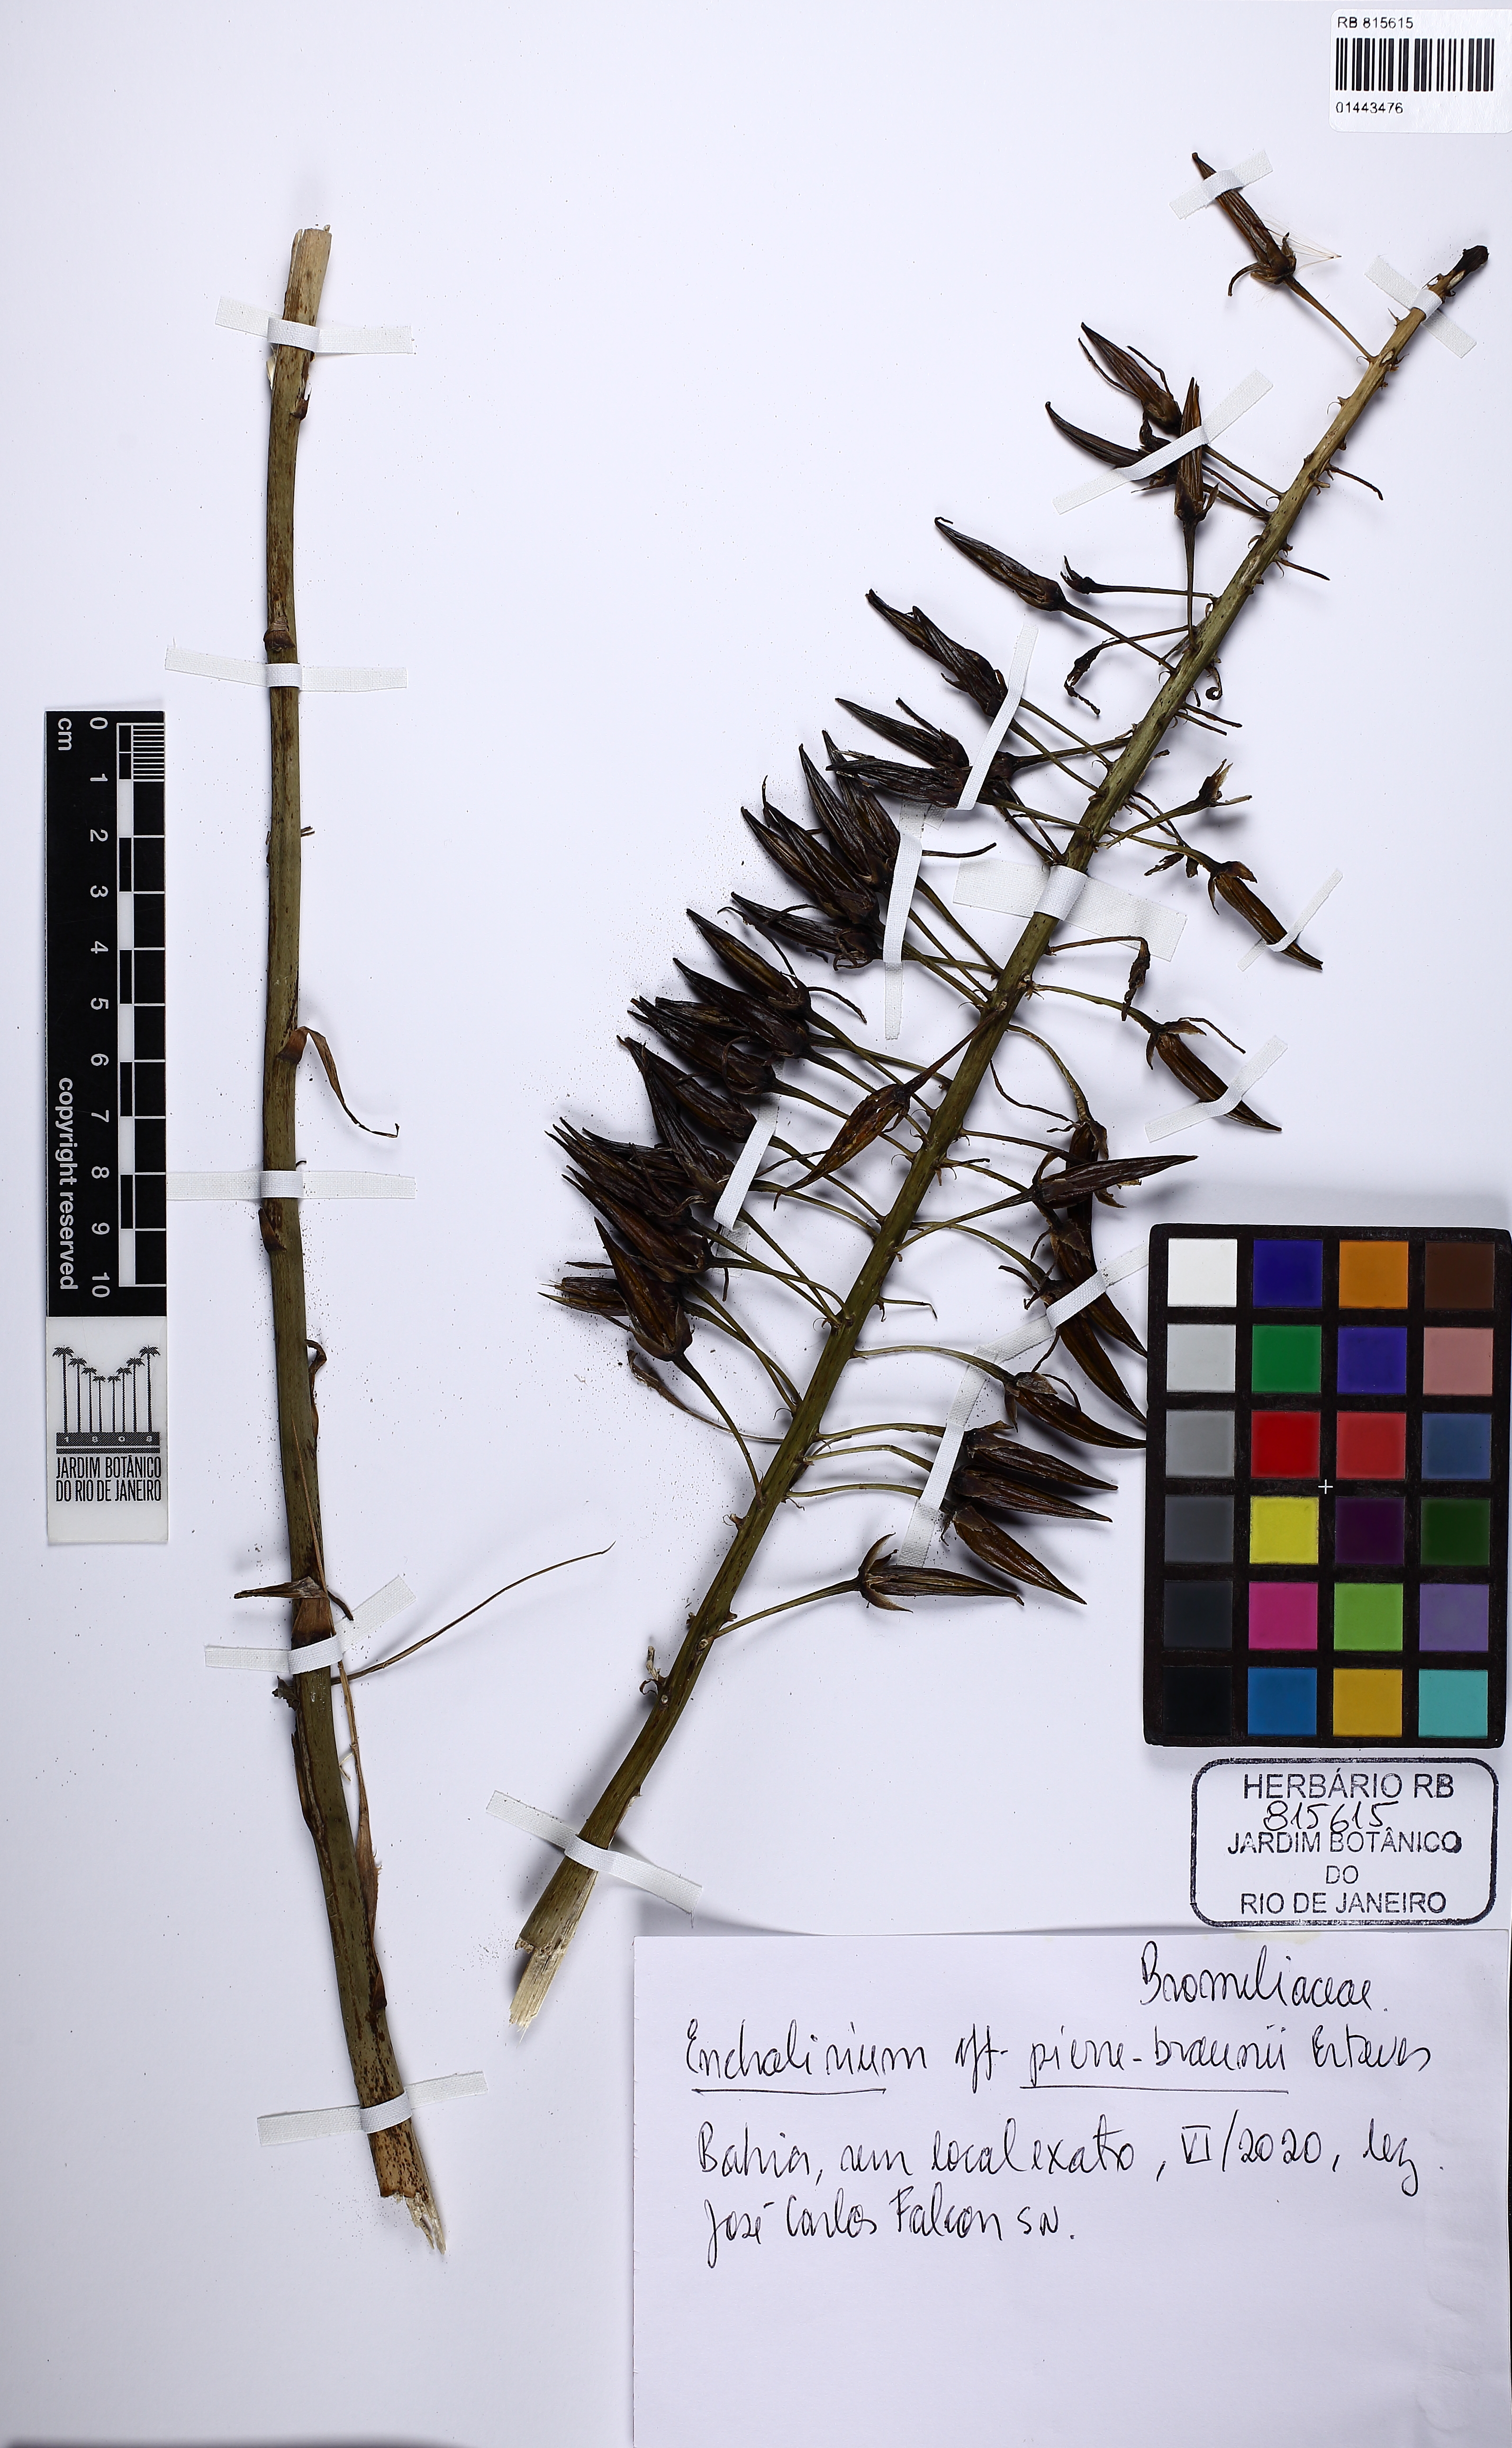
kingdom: Plantae
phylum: Tracheophyta
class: Liliopsida
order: Poales
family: Bromeliaceae
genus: Encholirium
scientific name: Encholirium pierre-braunii
